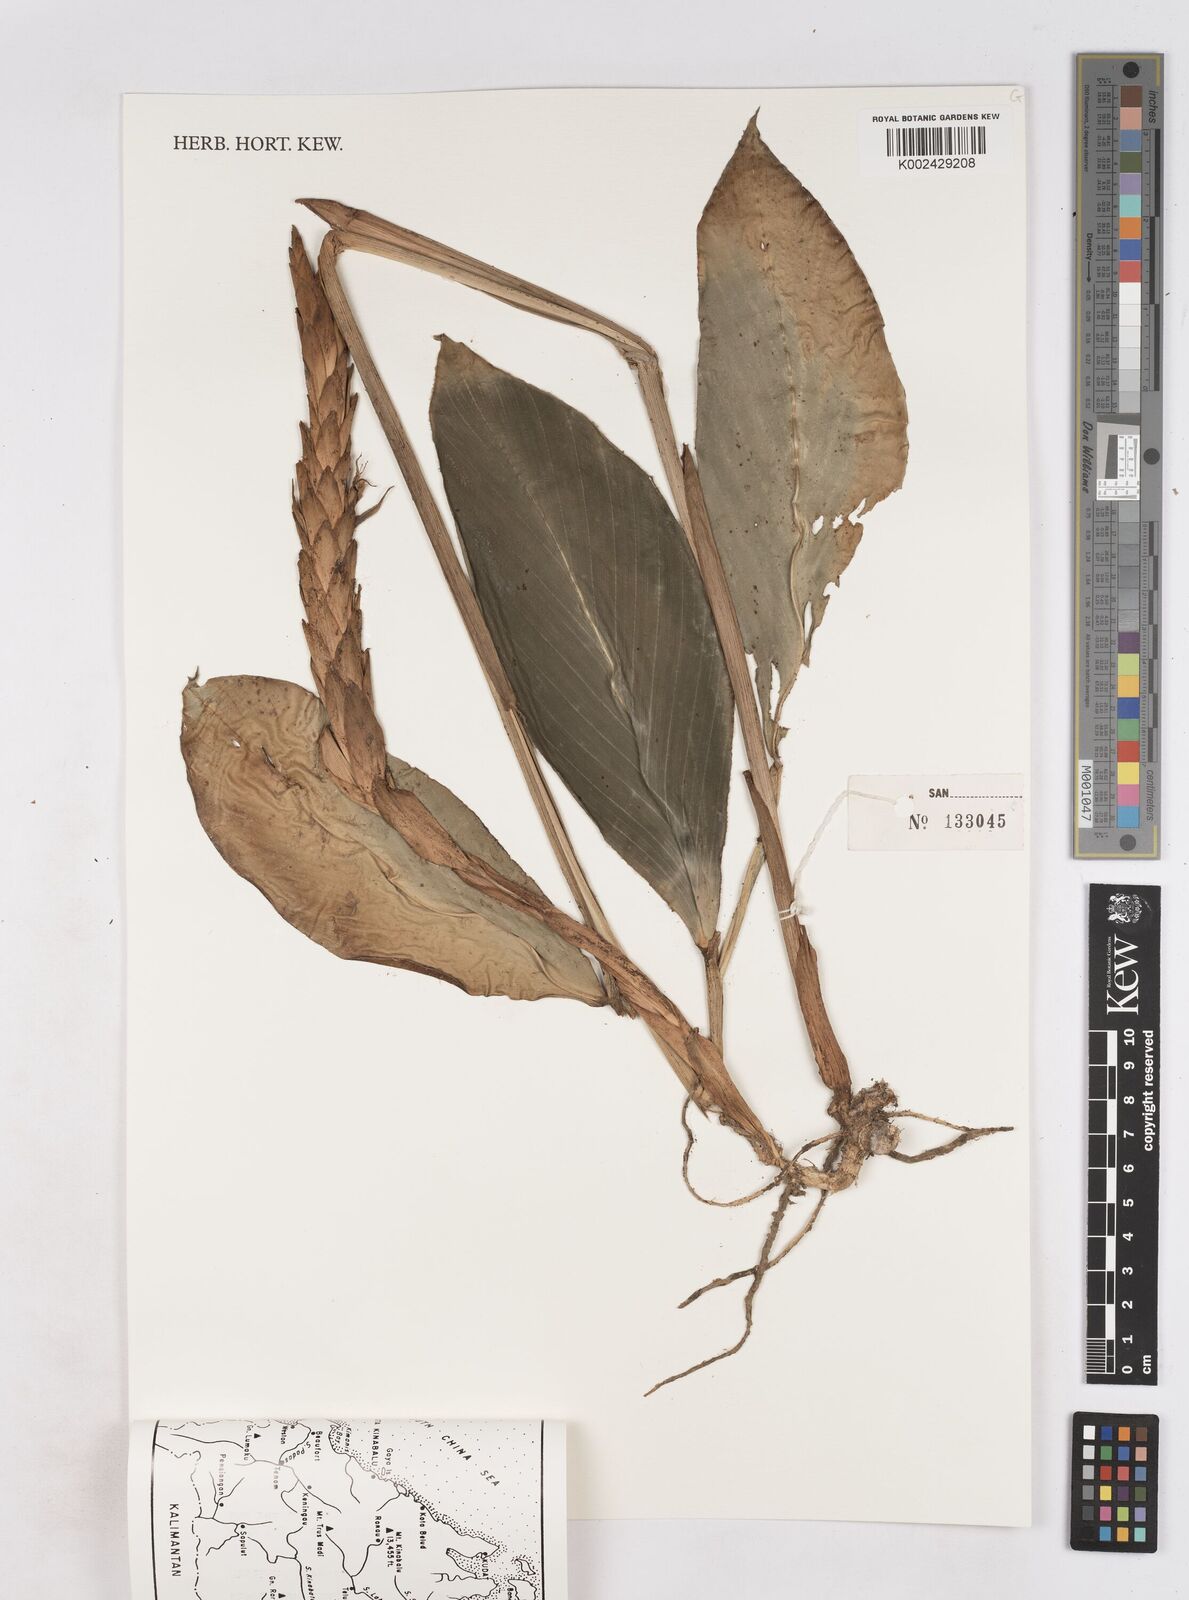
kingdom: Plantae
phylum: Tracheophyta
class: Liliopsida
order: Zingiberales
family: Zingiberaceae
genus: Zingiber
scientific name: Zingiber
